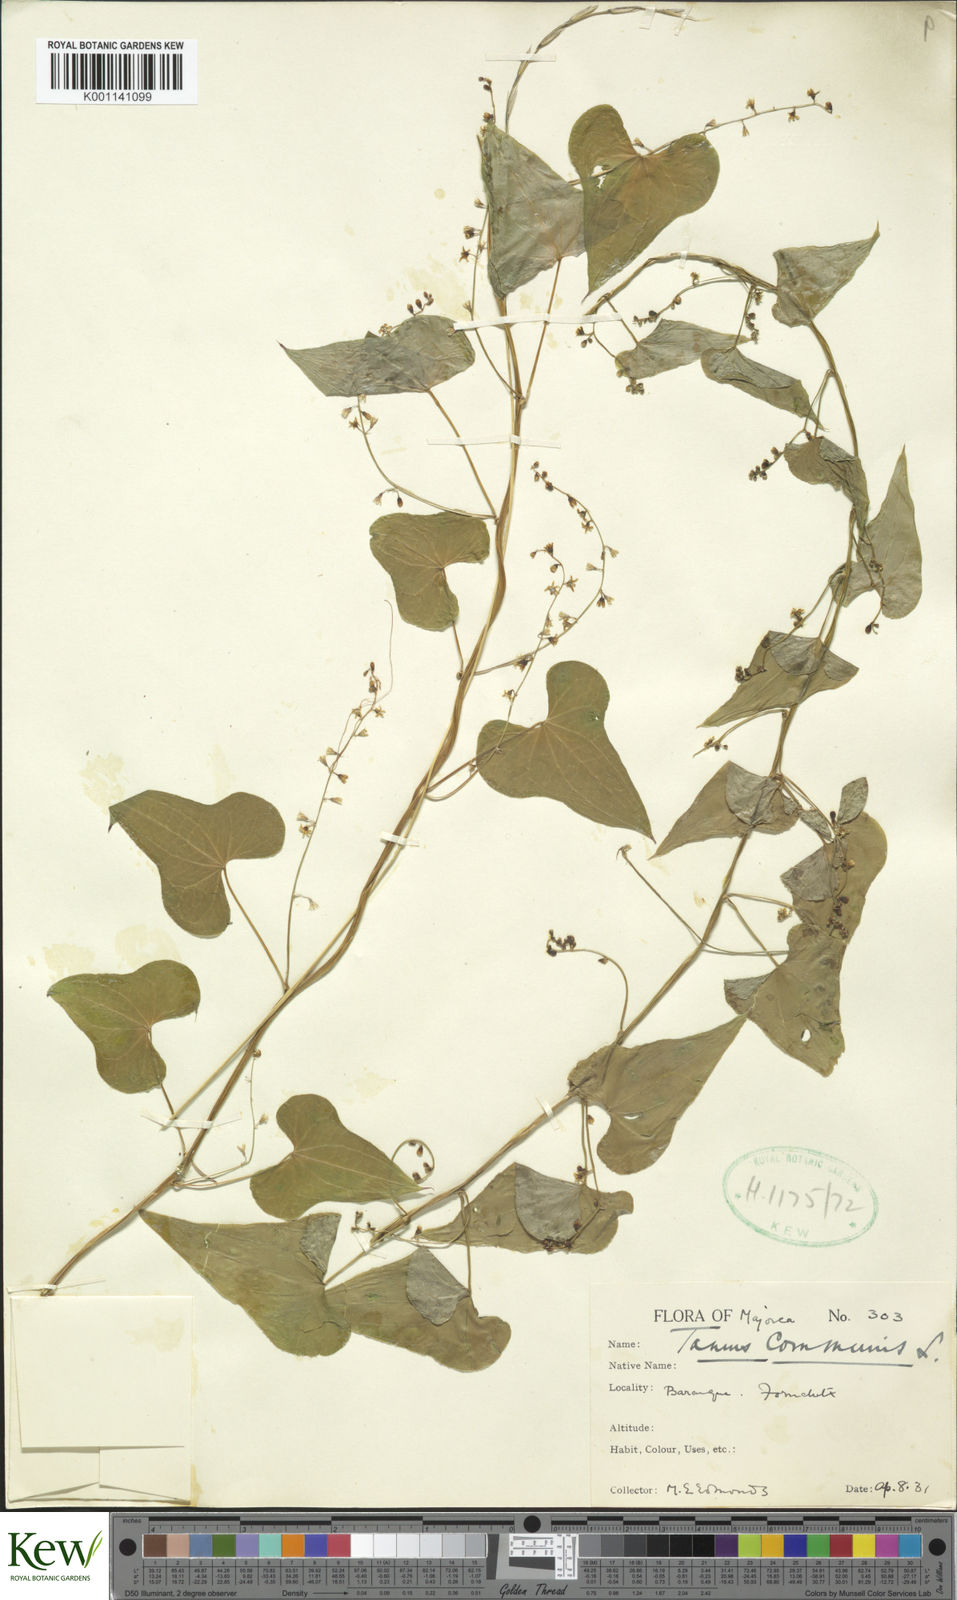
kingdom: Plantae
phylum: Tracheophyta
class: Liliopsida
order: Dioscoreales
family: Dioscoreaceae
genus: Dioscorea
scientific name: Dioscorea communis
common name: Black-bindweed
